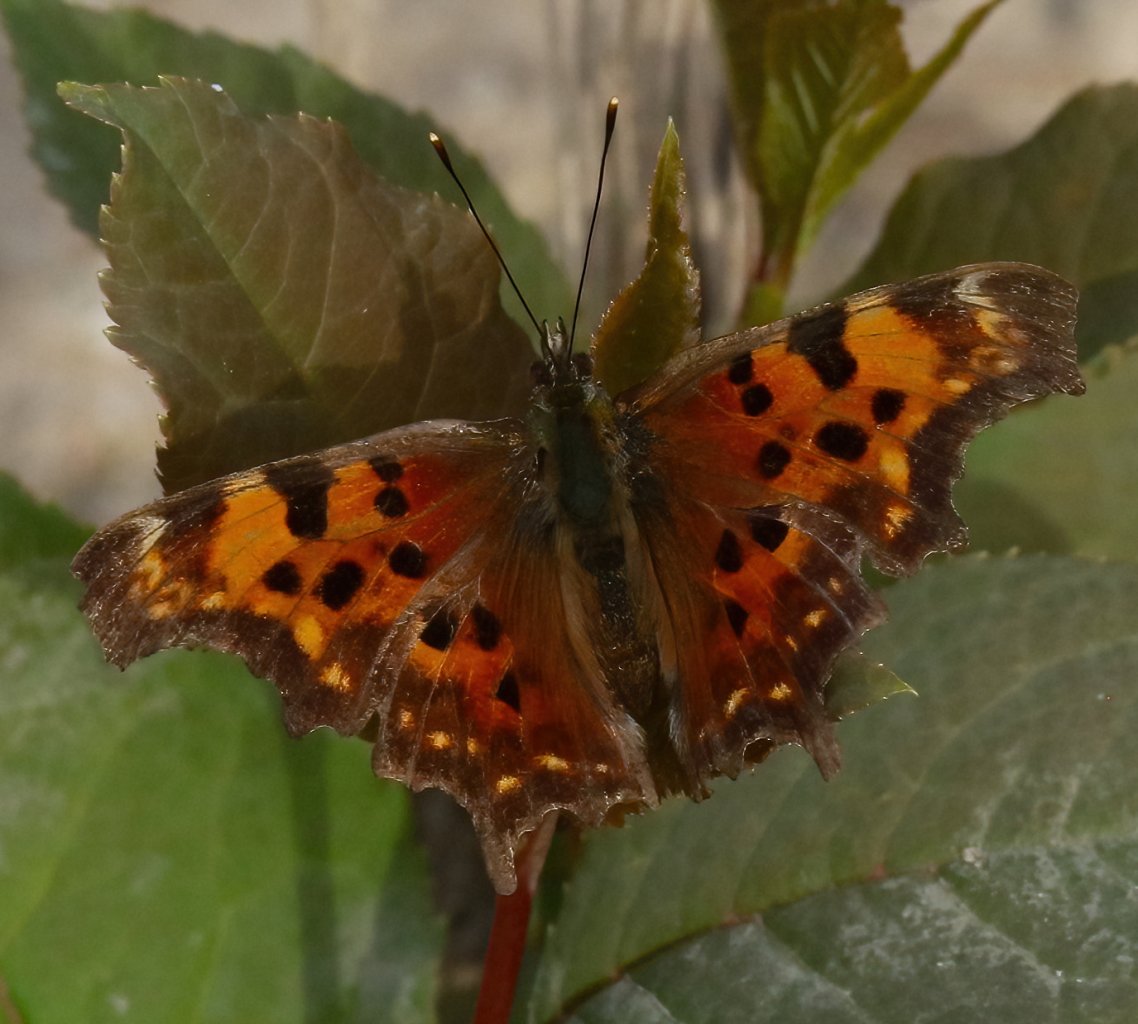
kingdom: Animalia
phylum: Arthropoda
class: Insecta
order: Lepidoptera
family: Nymphalidae
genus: Polygonia
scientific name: Polygonia faunus
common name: Green Comma
